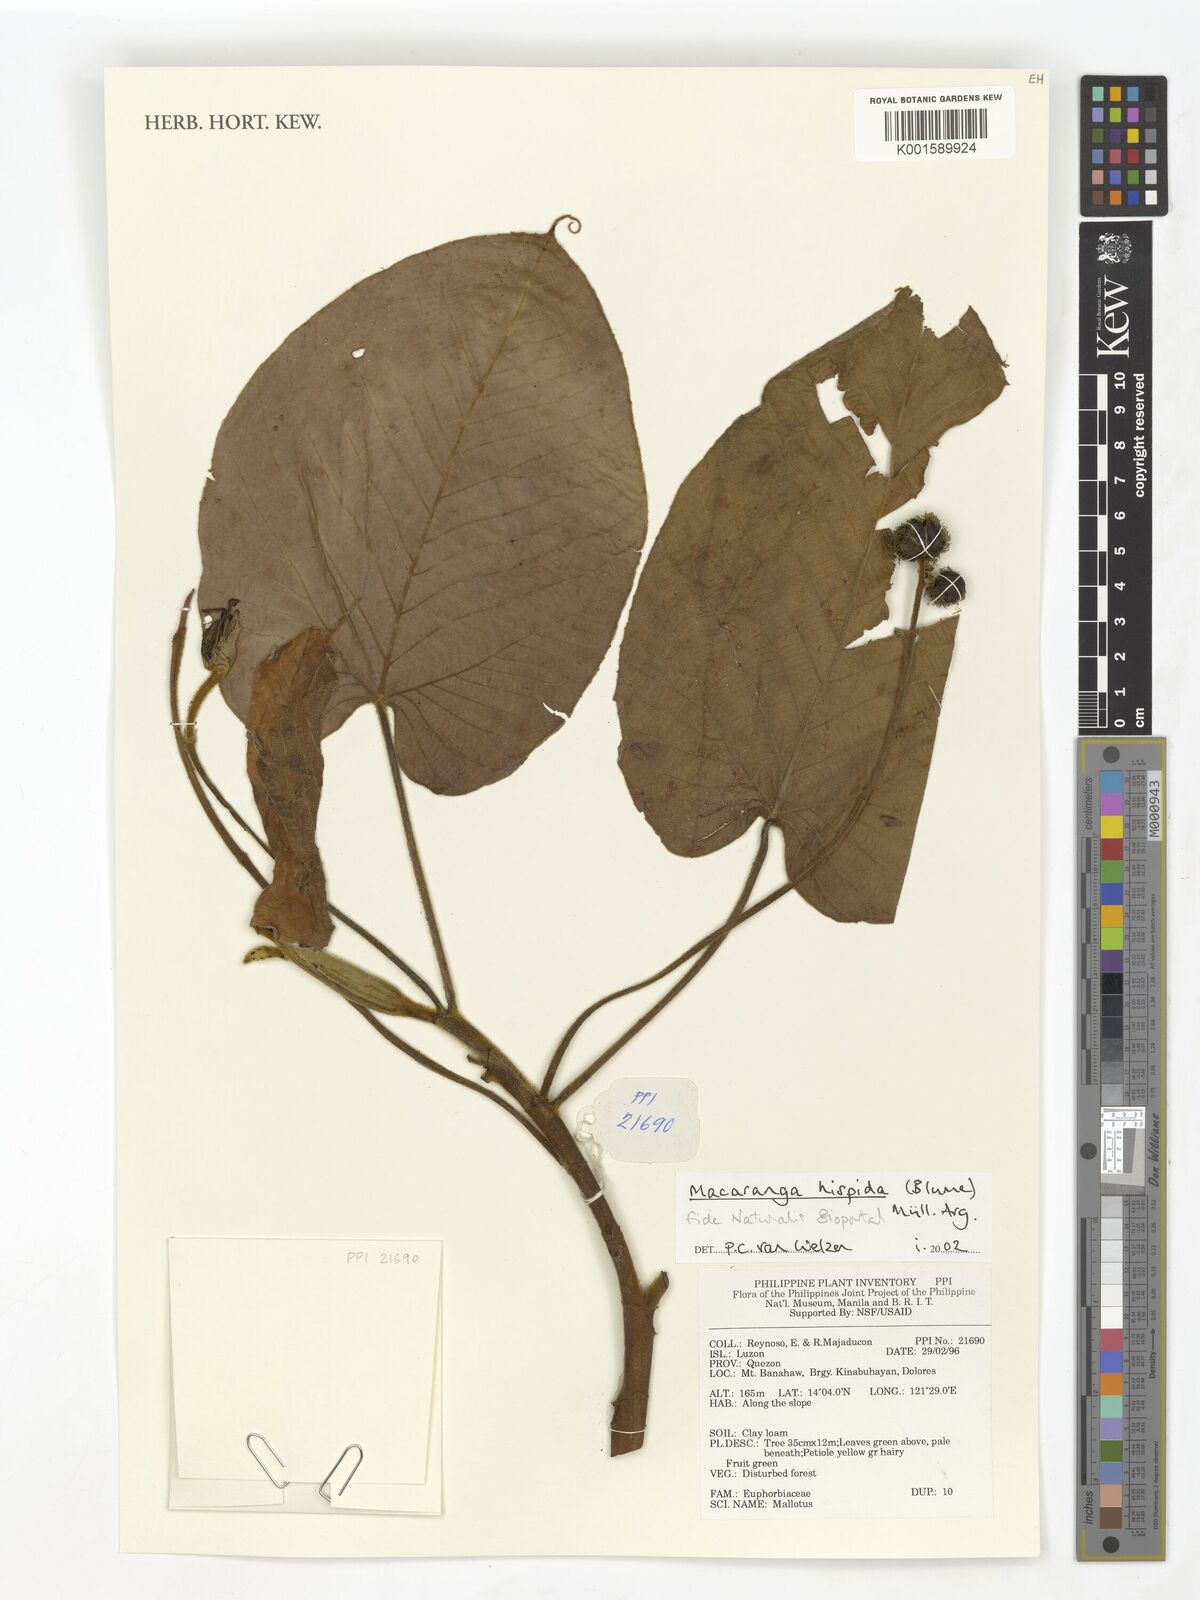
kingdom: Plantae
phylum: Tracheophyta
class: Magnoliopsida
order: Malpighiales
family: Euphorbiaceae
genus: Macaranga
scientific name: Macaranga hispida
